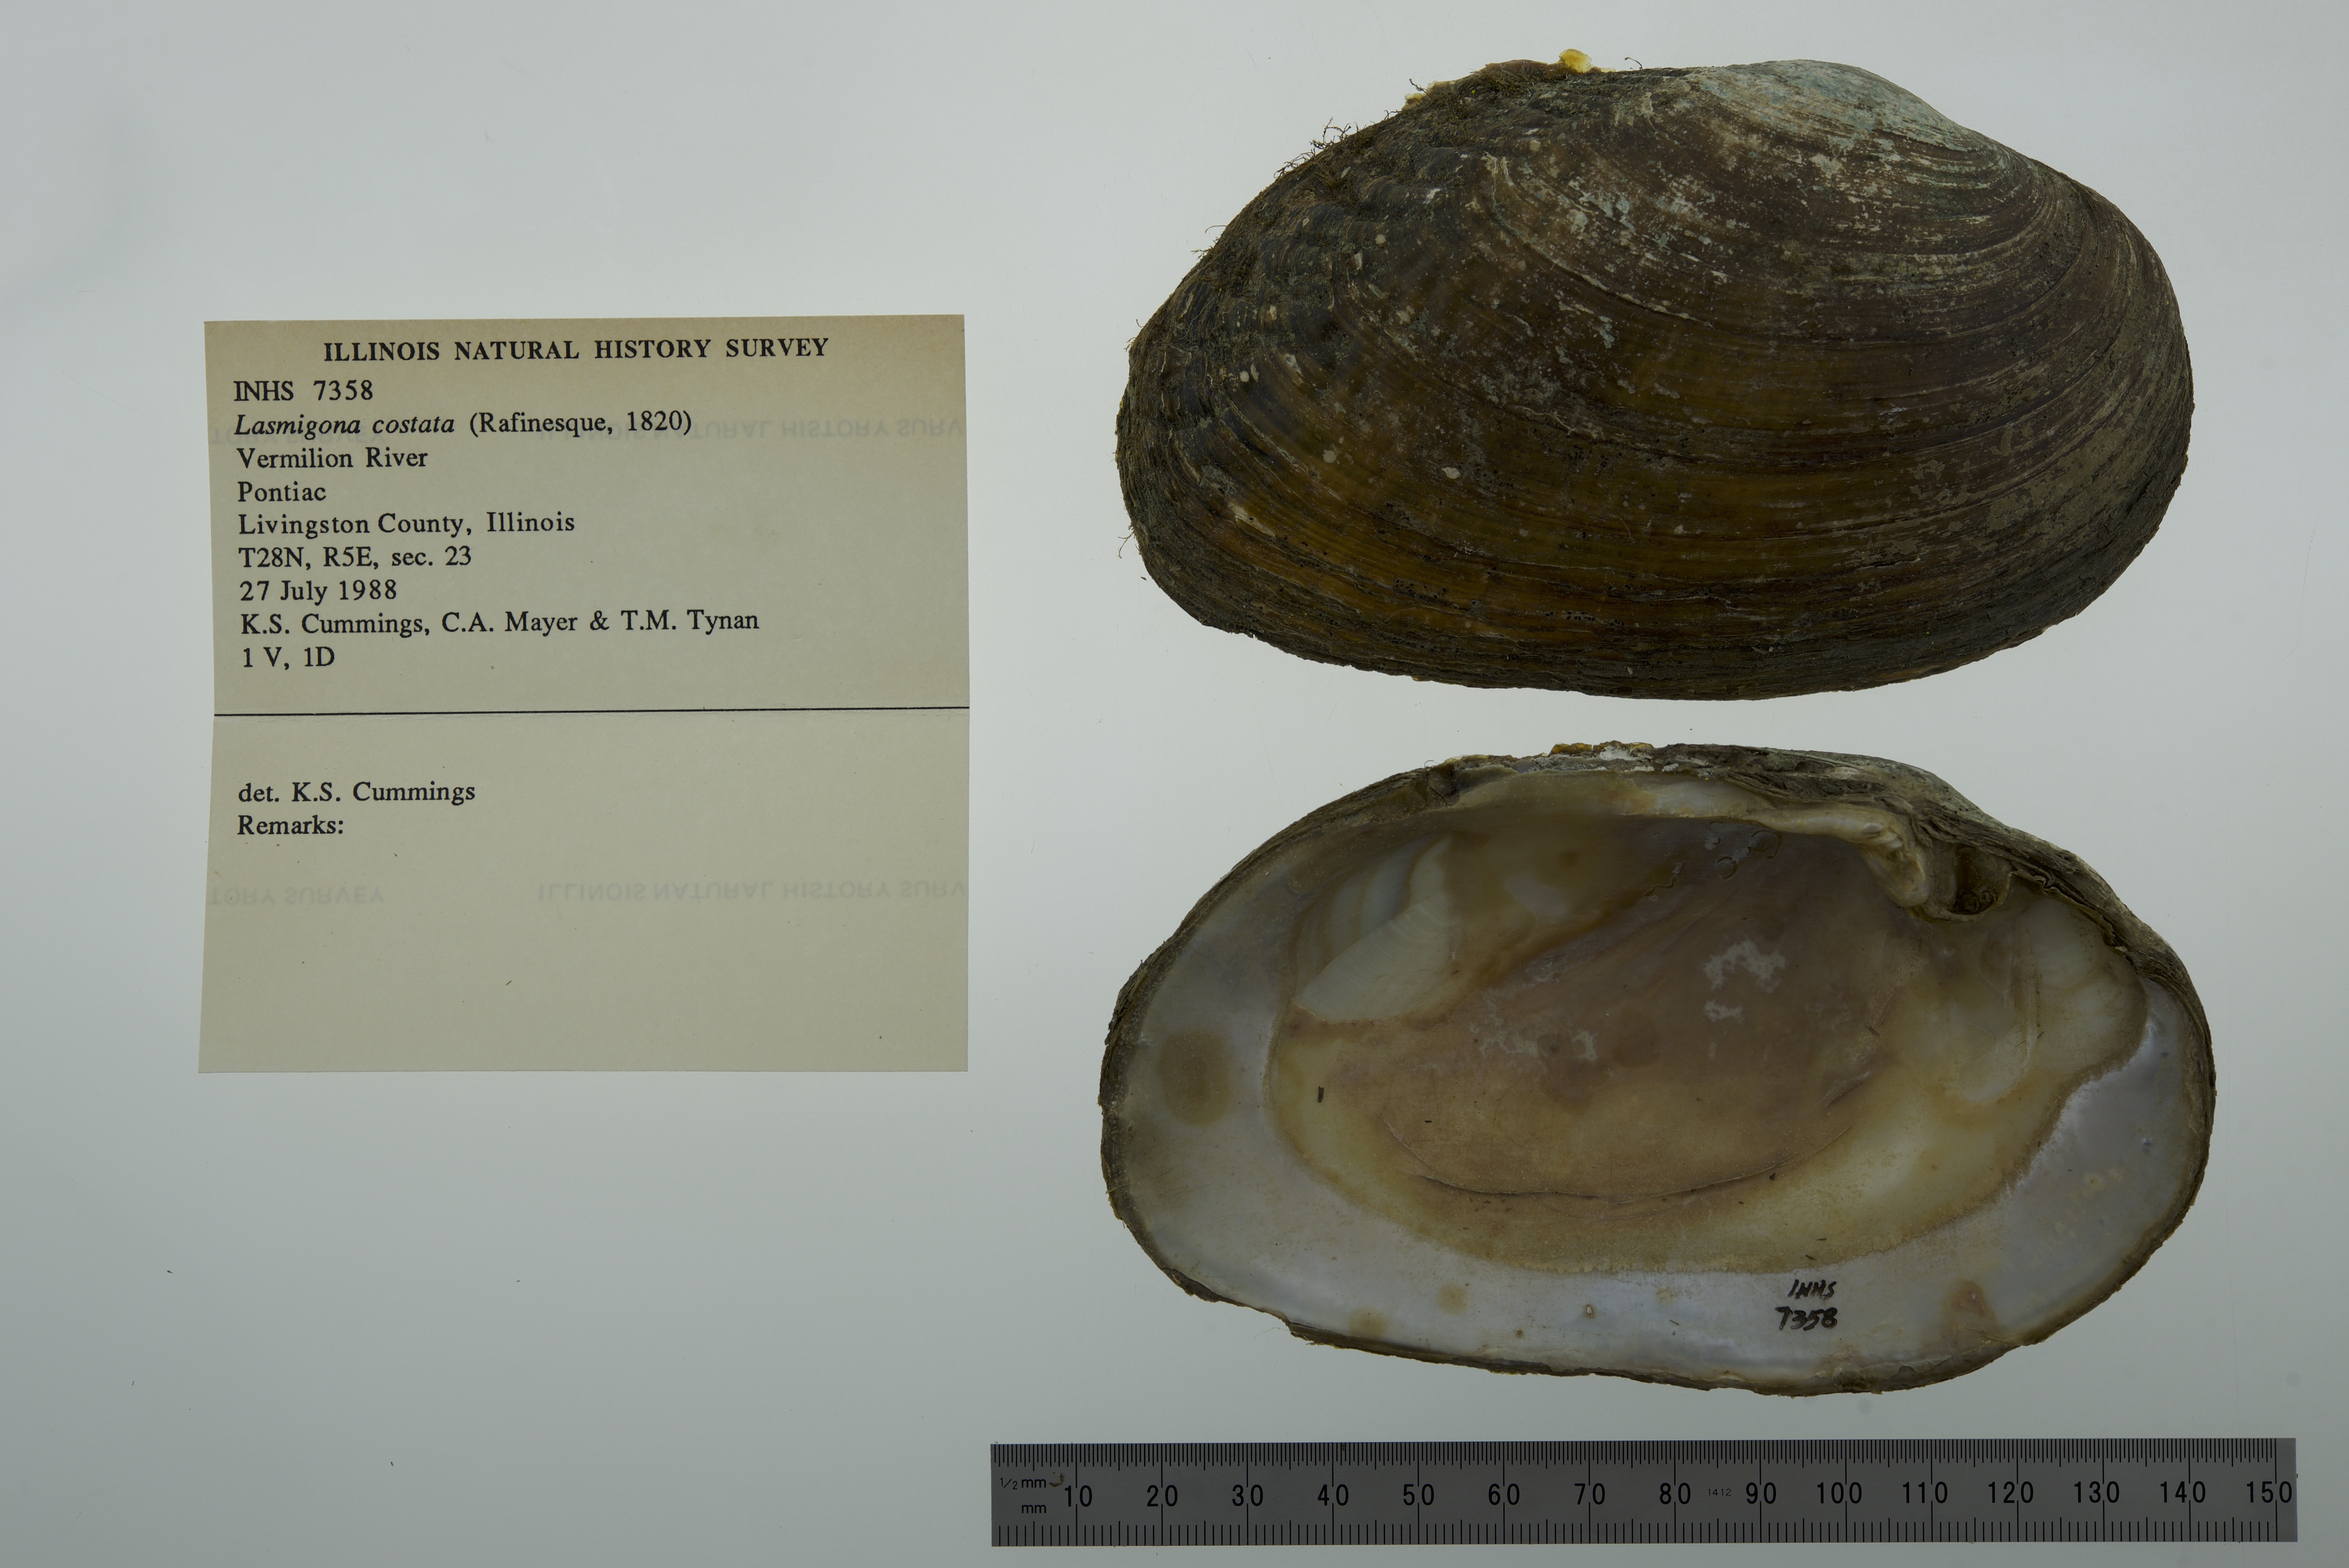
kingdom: Animalia
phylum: Mollusca
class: Bivalvia
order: Unionida
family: Unionidae
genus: Lasmigona
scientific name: Lasmigona costata
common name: Flutedshell
